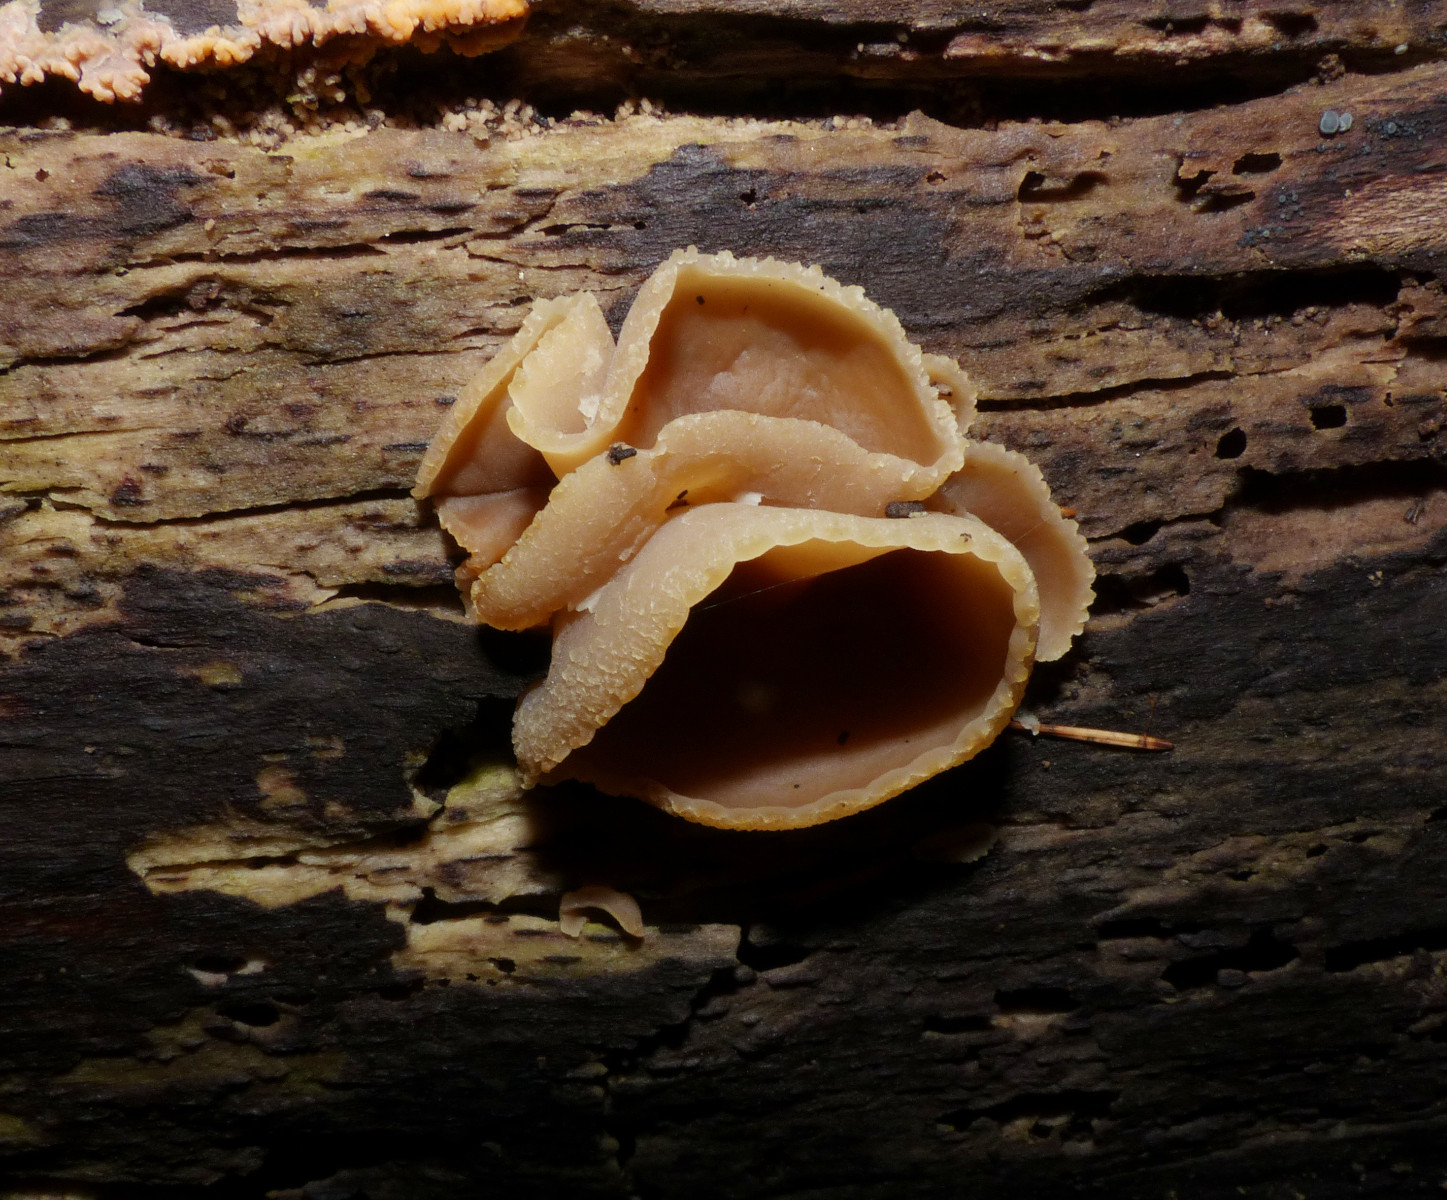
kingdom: Fungi
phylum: Ascomycota
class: Pezizomycetes
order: Pezizales
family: Pezizaceae
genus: Peziza
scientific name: Peziza varia
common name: Ved-bægersvamp
